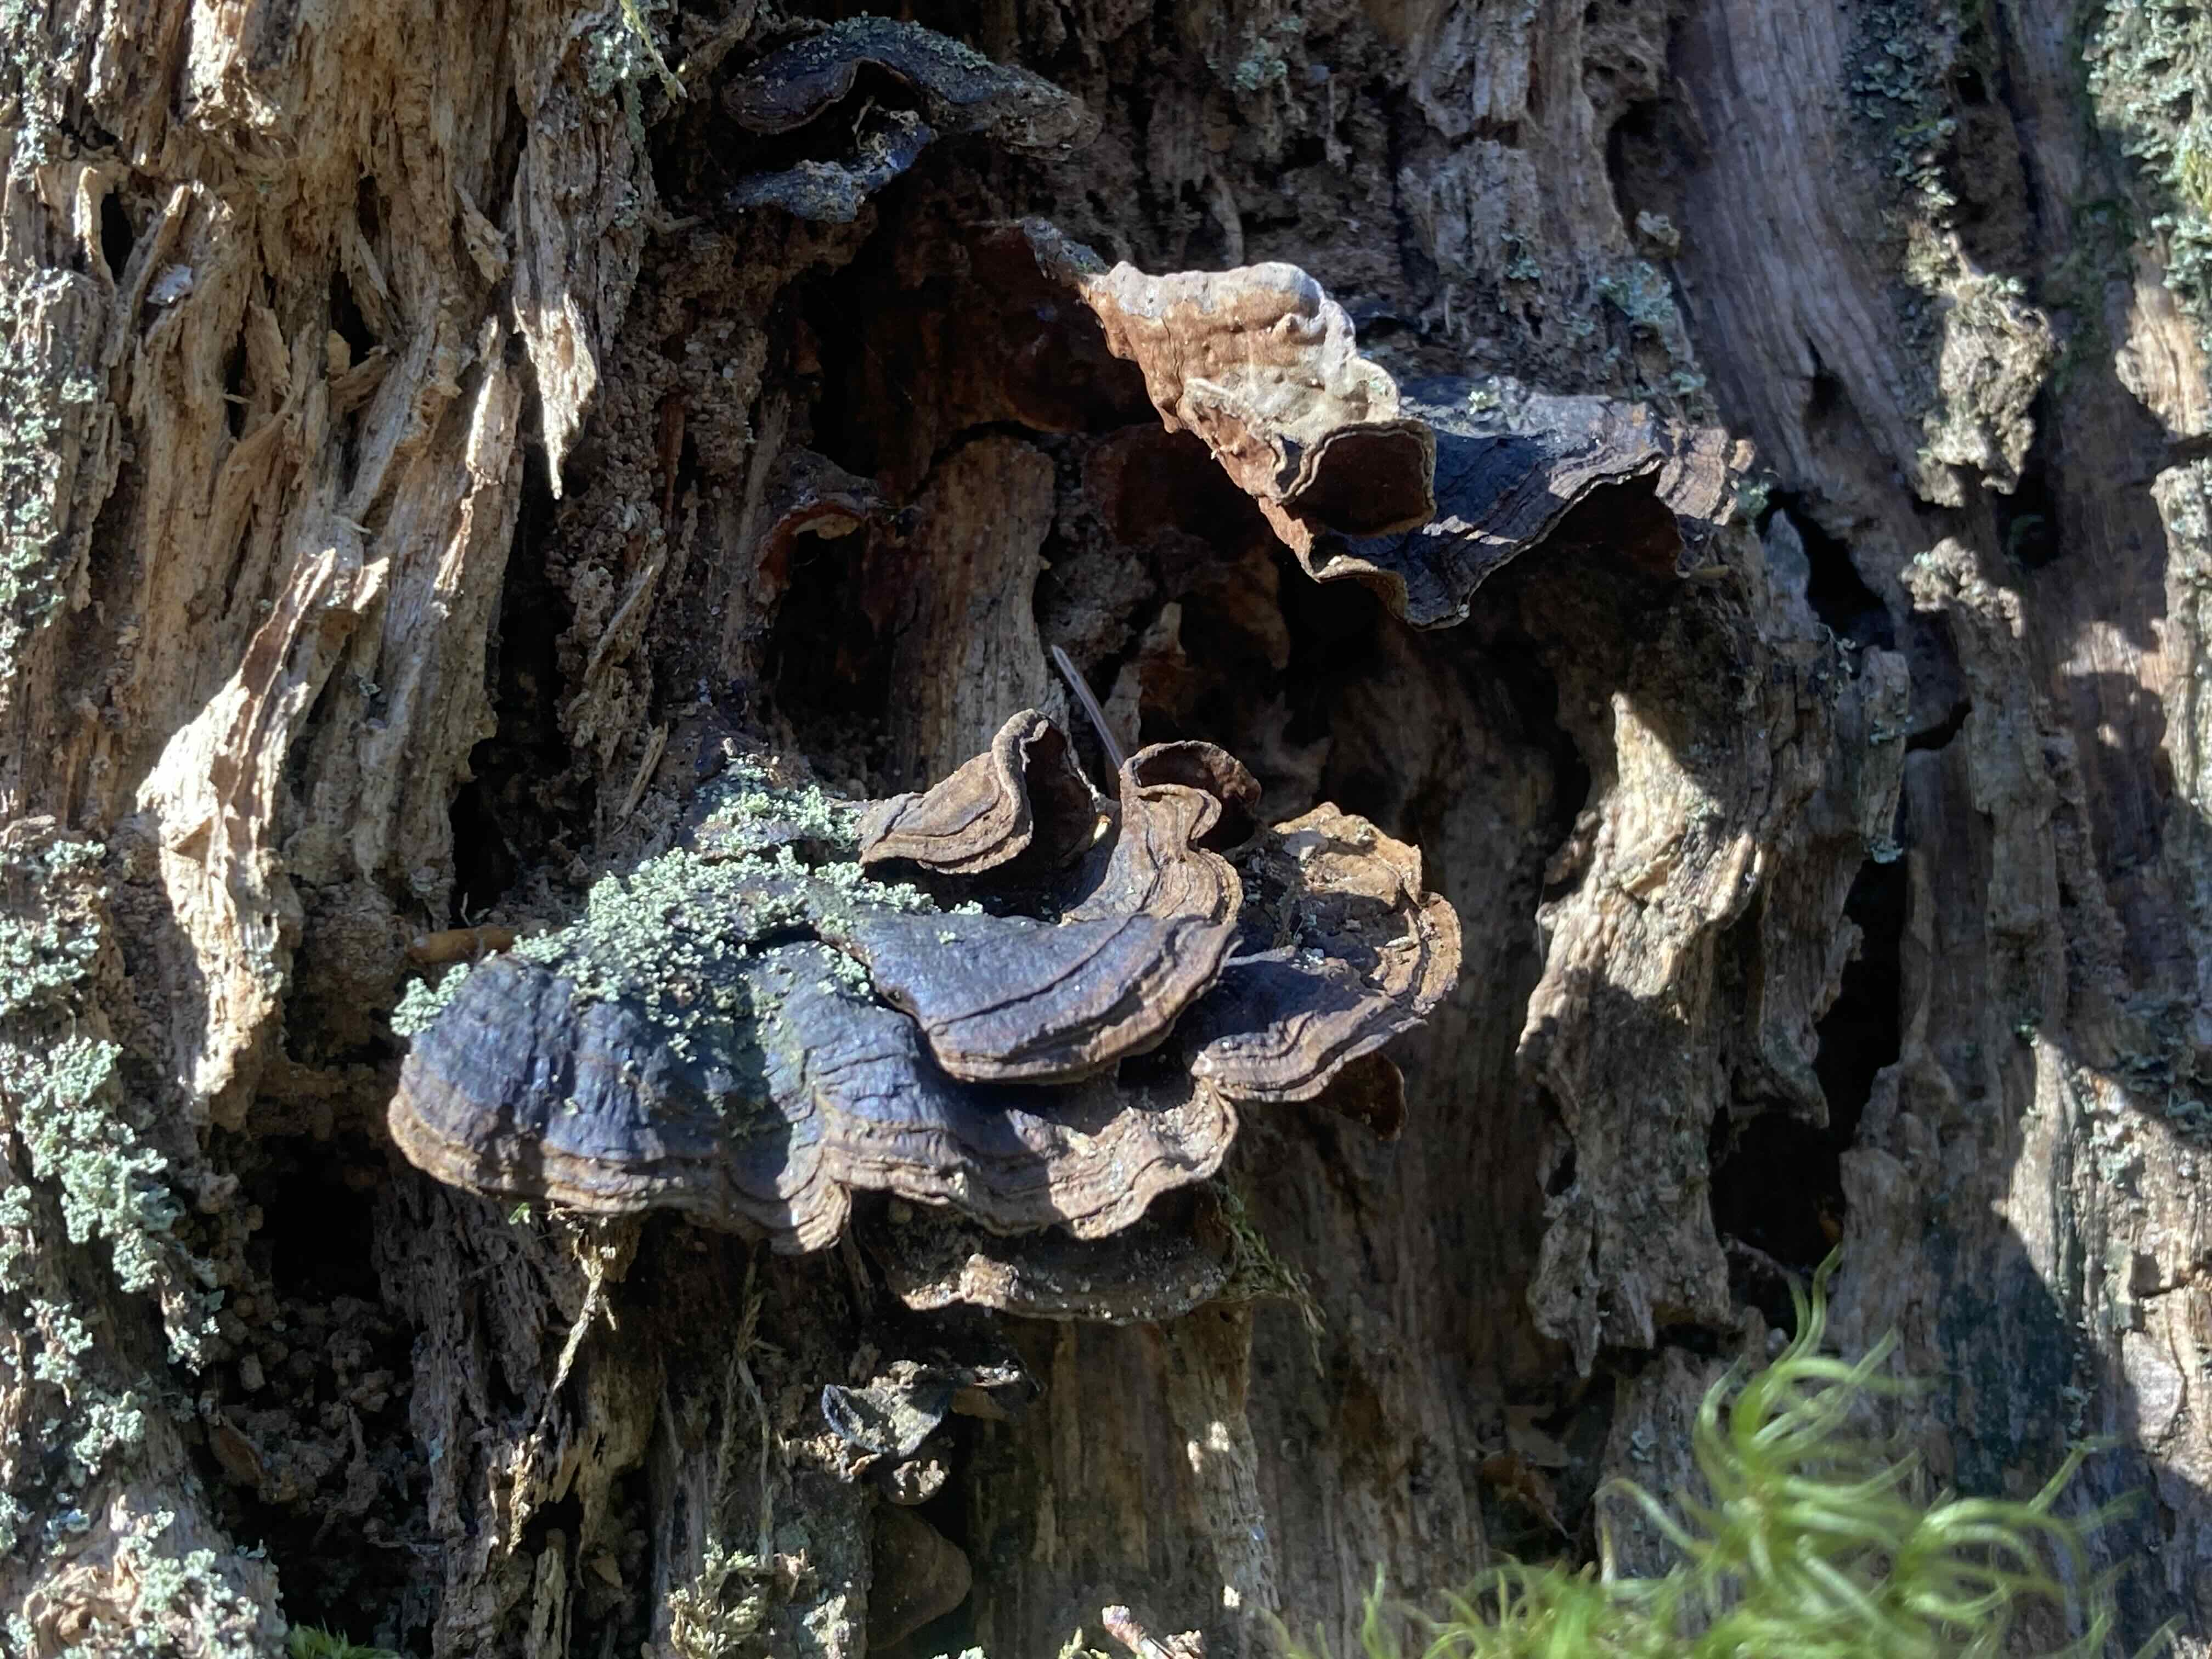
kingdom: Fungi
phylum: Basidiomycota
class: Agaricomycetes
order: Hymenochaetales
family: Hymenochaetaceae
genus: Hymenochaete
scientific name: Hymenochaete rubiginosa
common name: stiv ruslædersvamp
